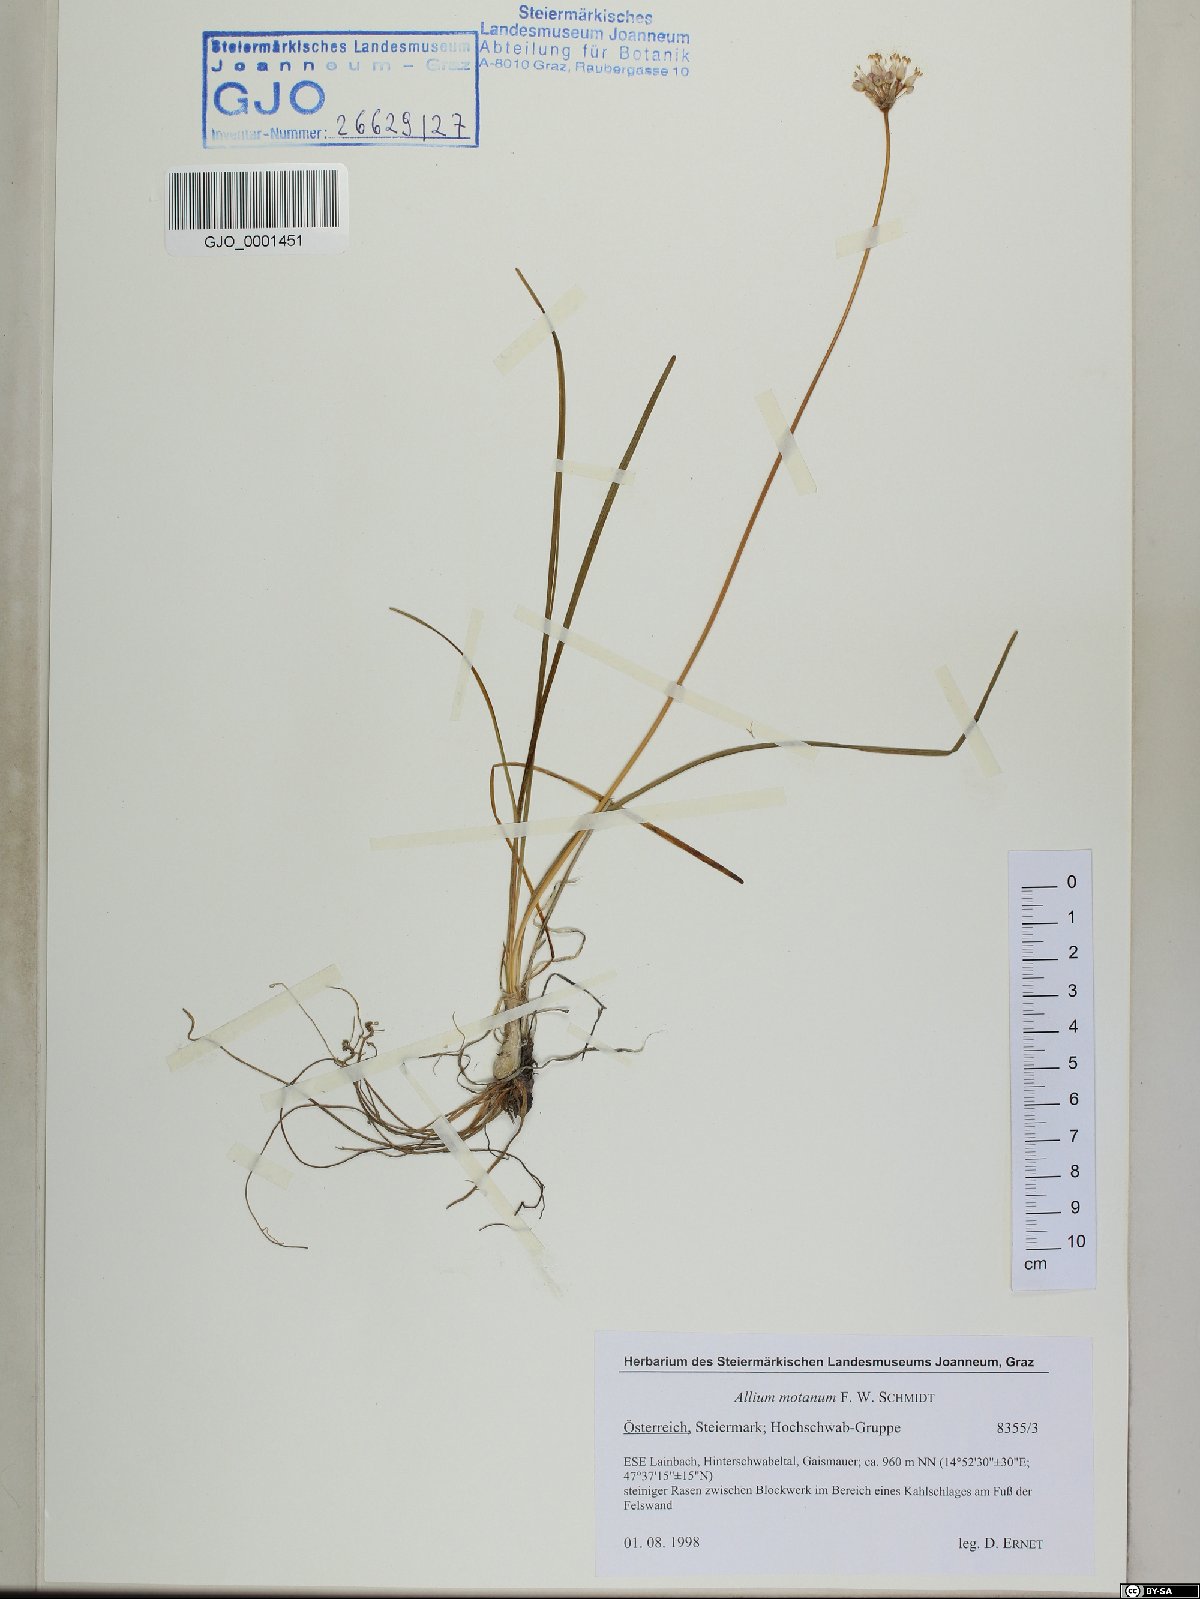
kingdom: Plantae
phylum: Tracheophyta
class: Liliopsida
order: Asparagales
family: Amaryllidaceae
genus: Allium
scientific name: Allium lusitanicum
